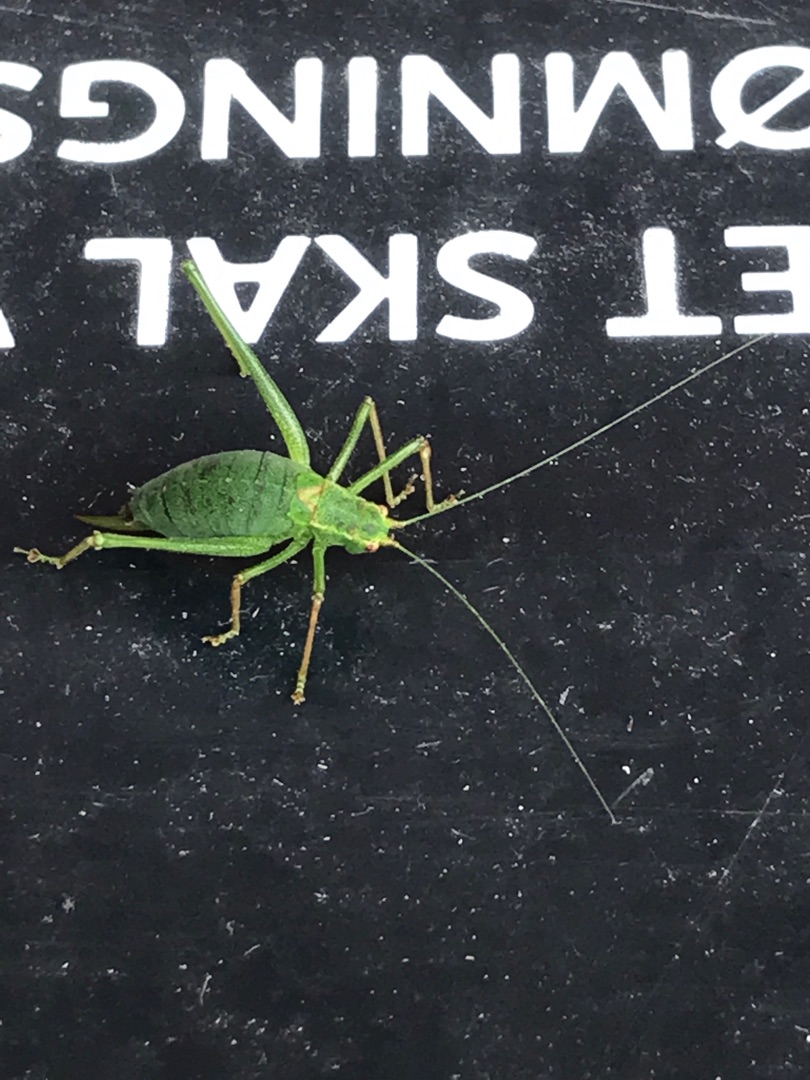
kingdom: Animalia
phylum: Arthropoda
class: Insecta
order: Orthoptera
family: Tettigoniidae
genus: Leptophyes
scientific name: Leptophyes punctatissima
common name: Krumknivgræshoppe
